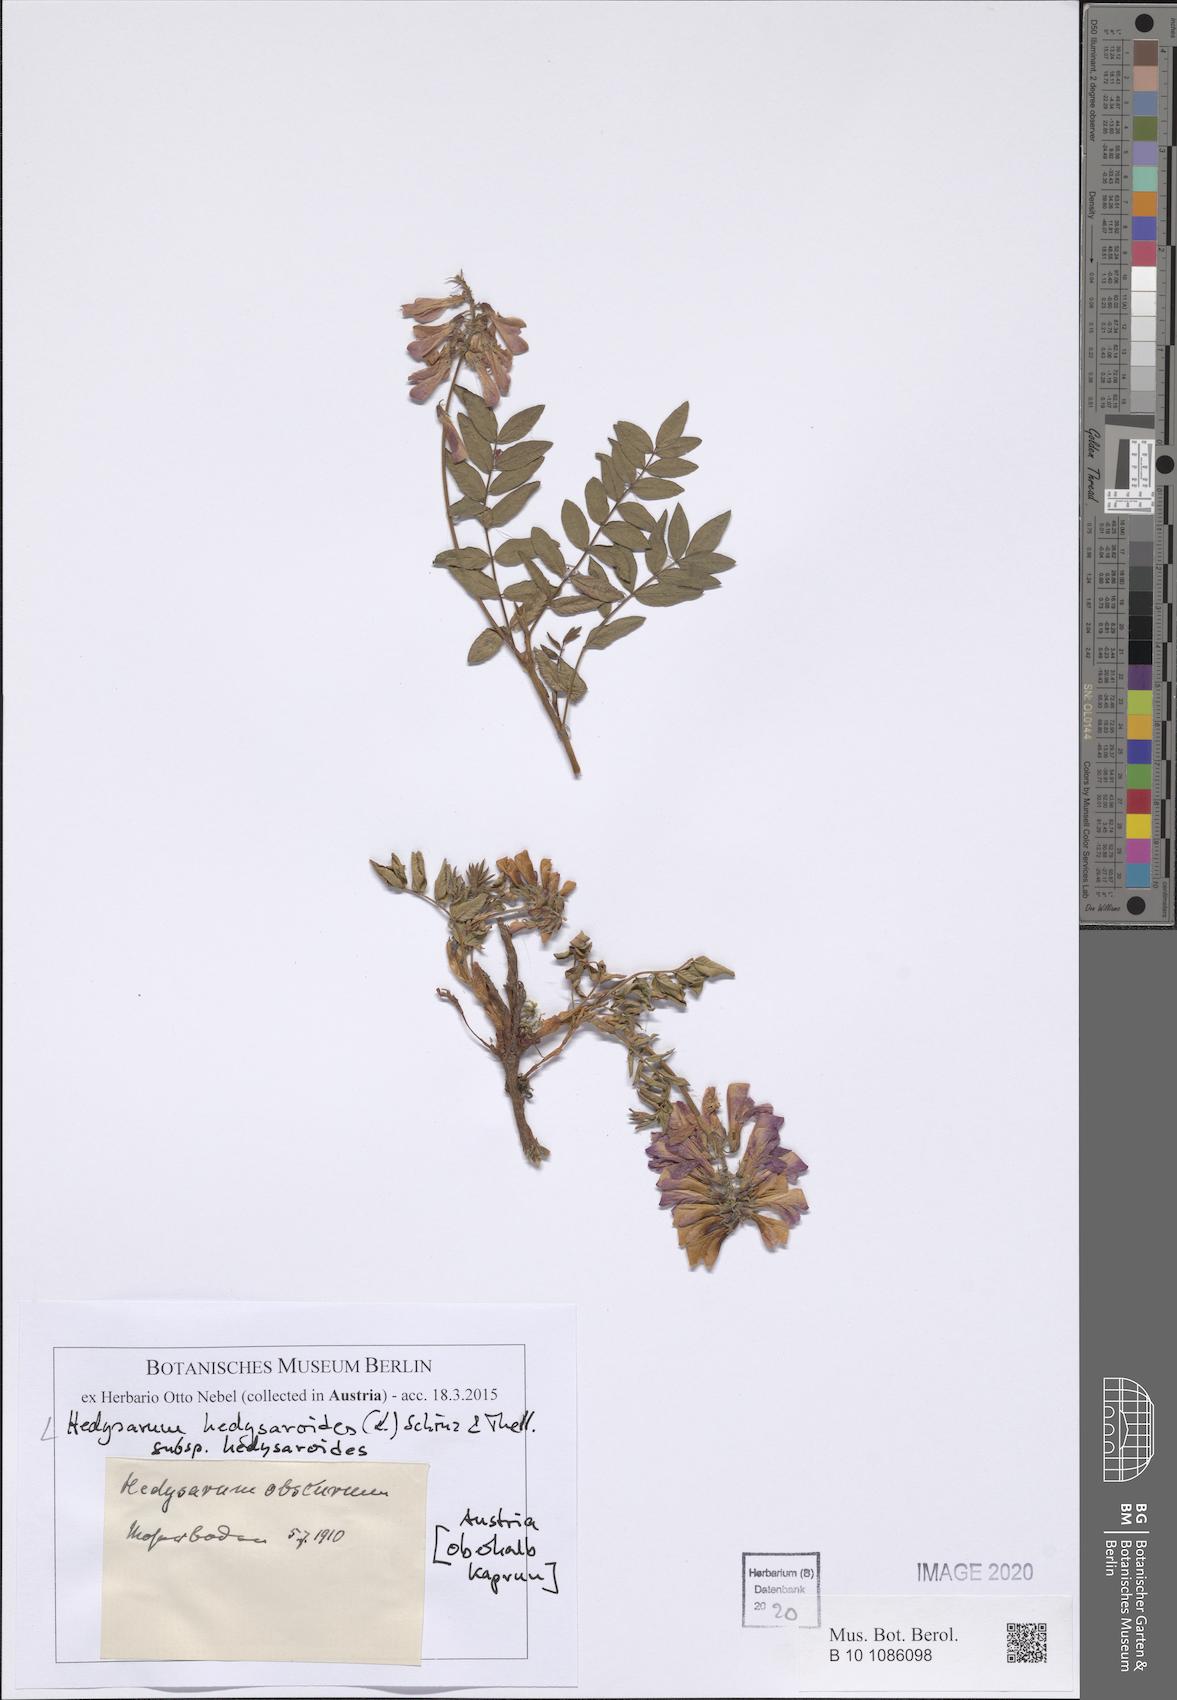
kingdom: Plantae
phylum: Tracheophyta
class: Magnoliopsida
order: Fabales
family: Fabaceae
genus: Hedysarum
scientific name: Hedysarum hedysaroides
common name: Alpine french-honeysuckle
